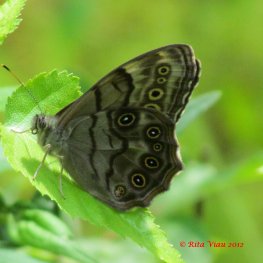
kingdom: Animalia
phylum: Arthropoda
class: Insecta
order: Lepidoptera
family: Nymphalidae
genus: Lethe
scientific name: Lethe anthedon
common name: Northern Pearly-Eye
